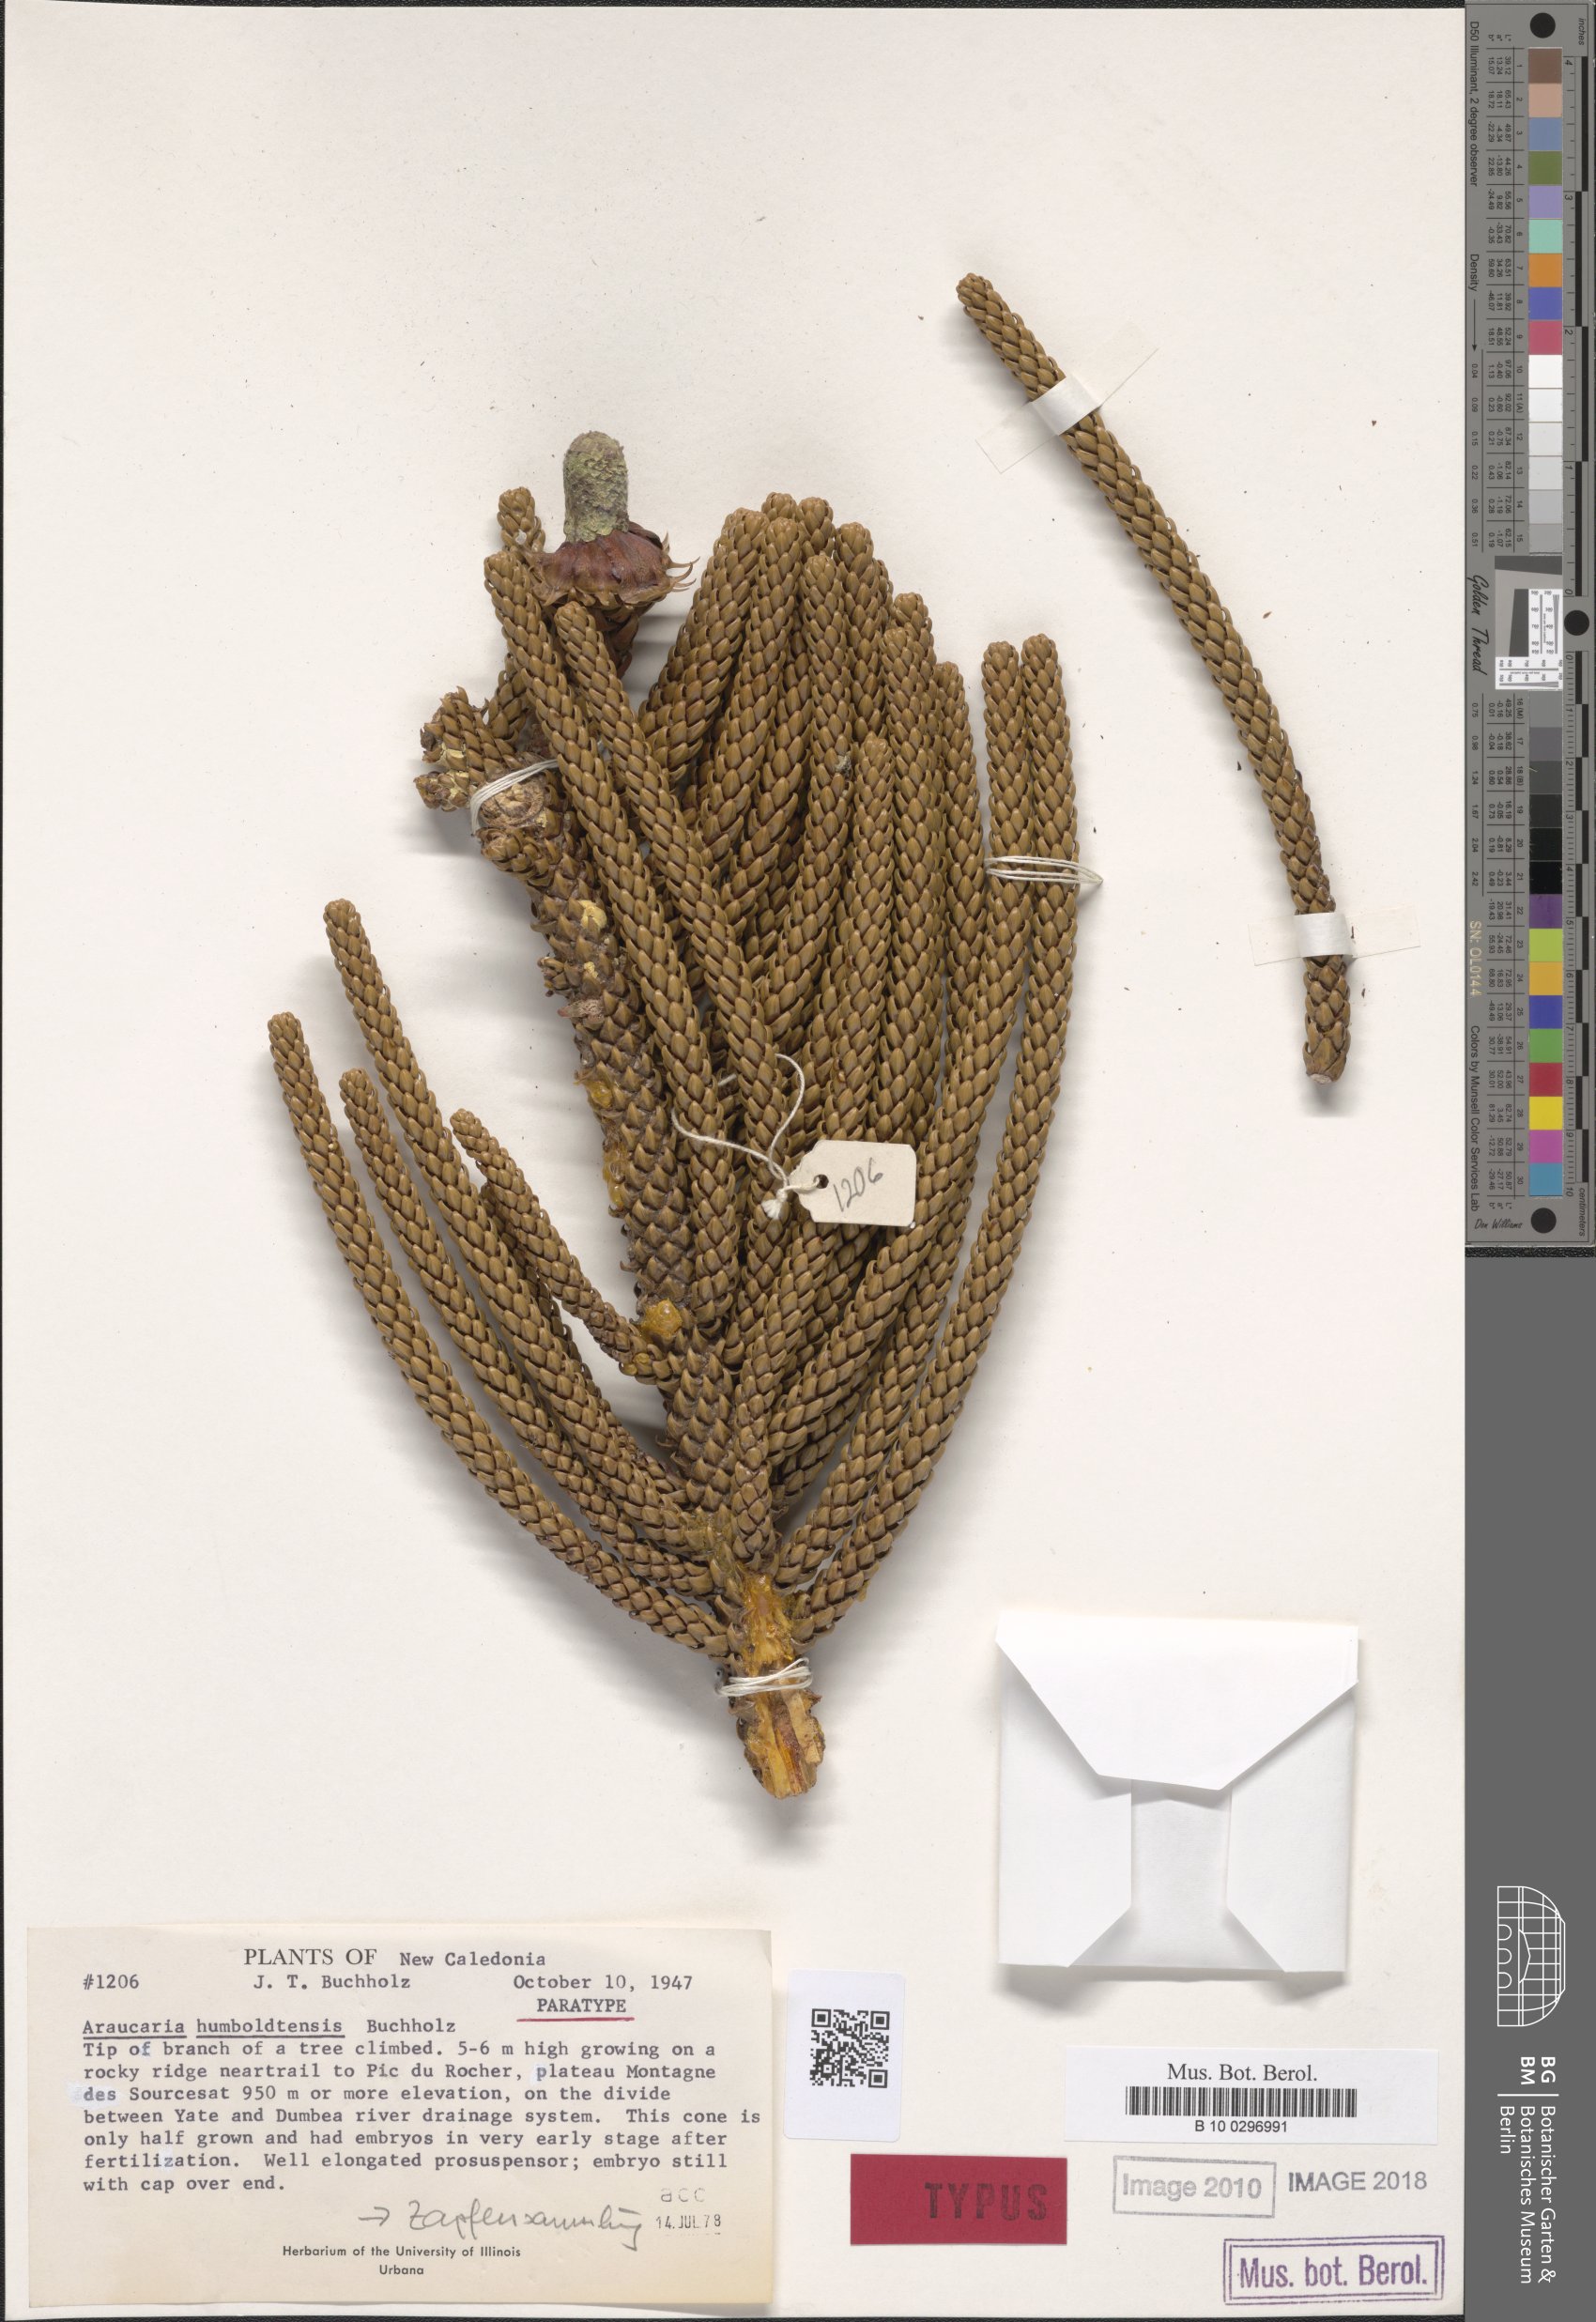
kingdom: Plantae
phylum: Tracheophyta
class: Pinopsida
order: Pinales
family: Araucariaceae
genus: Araucaria
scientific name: Araucaria humboldtensis
